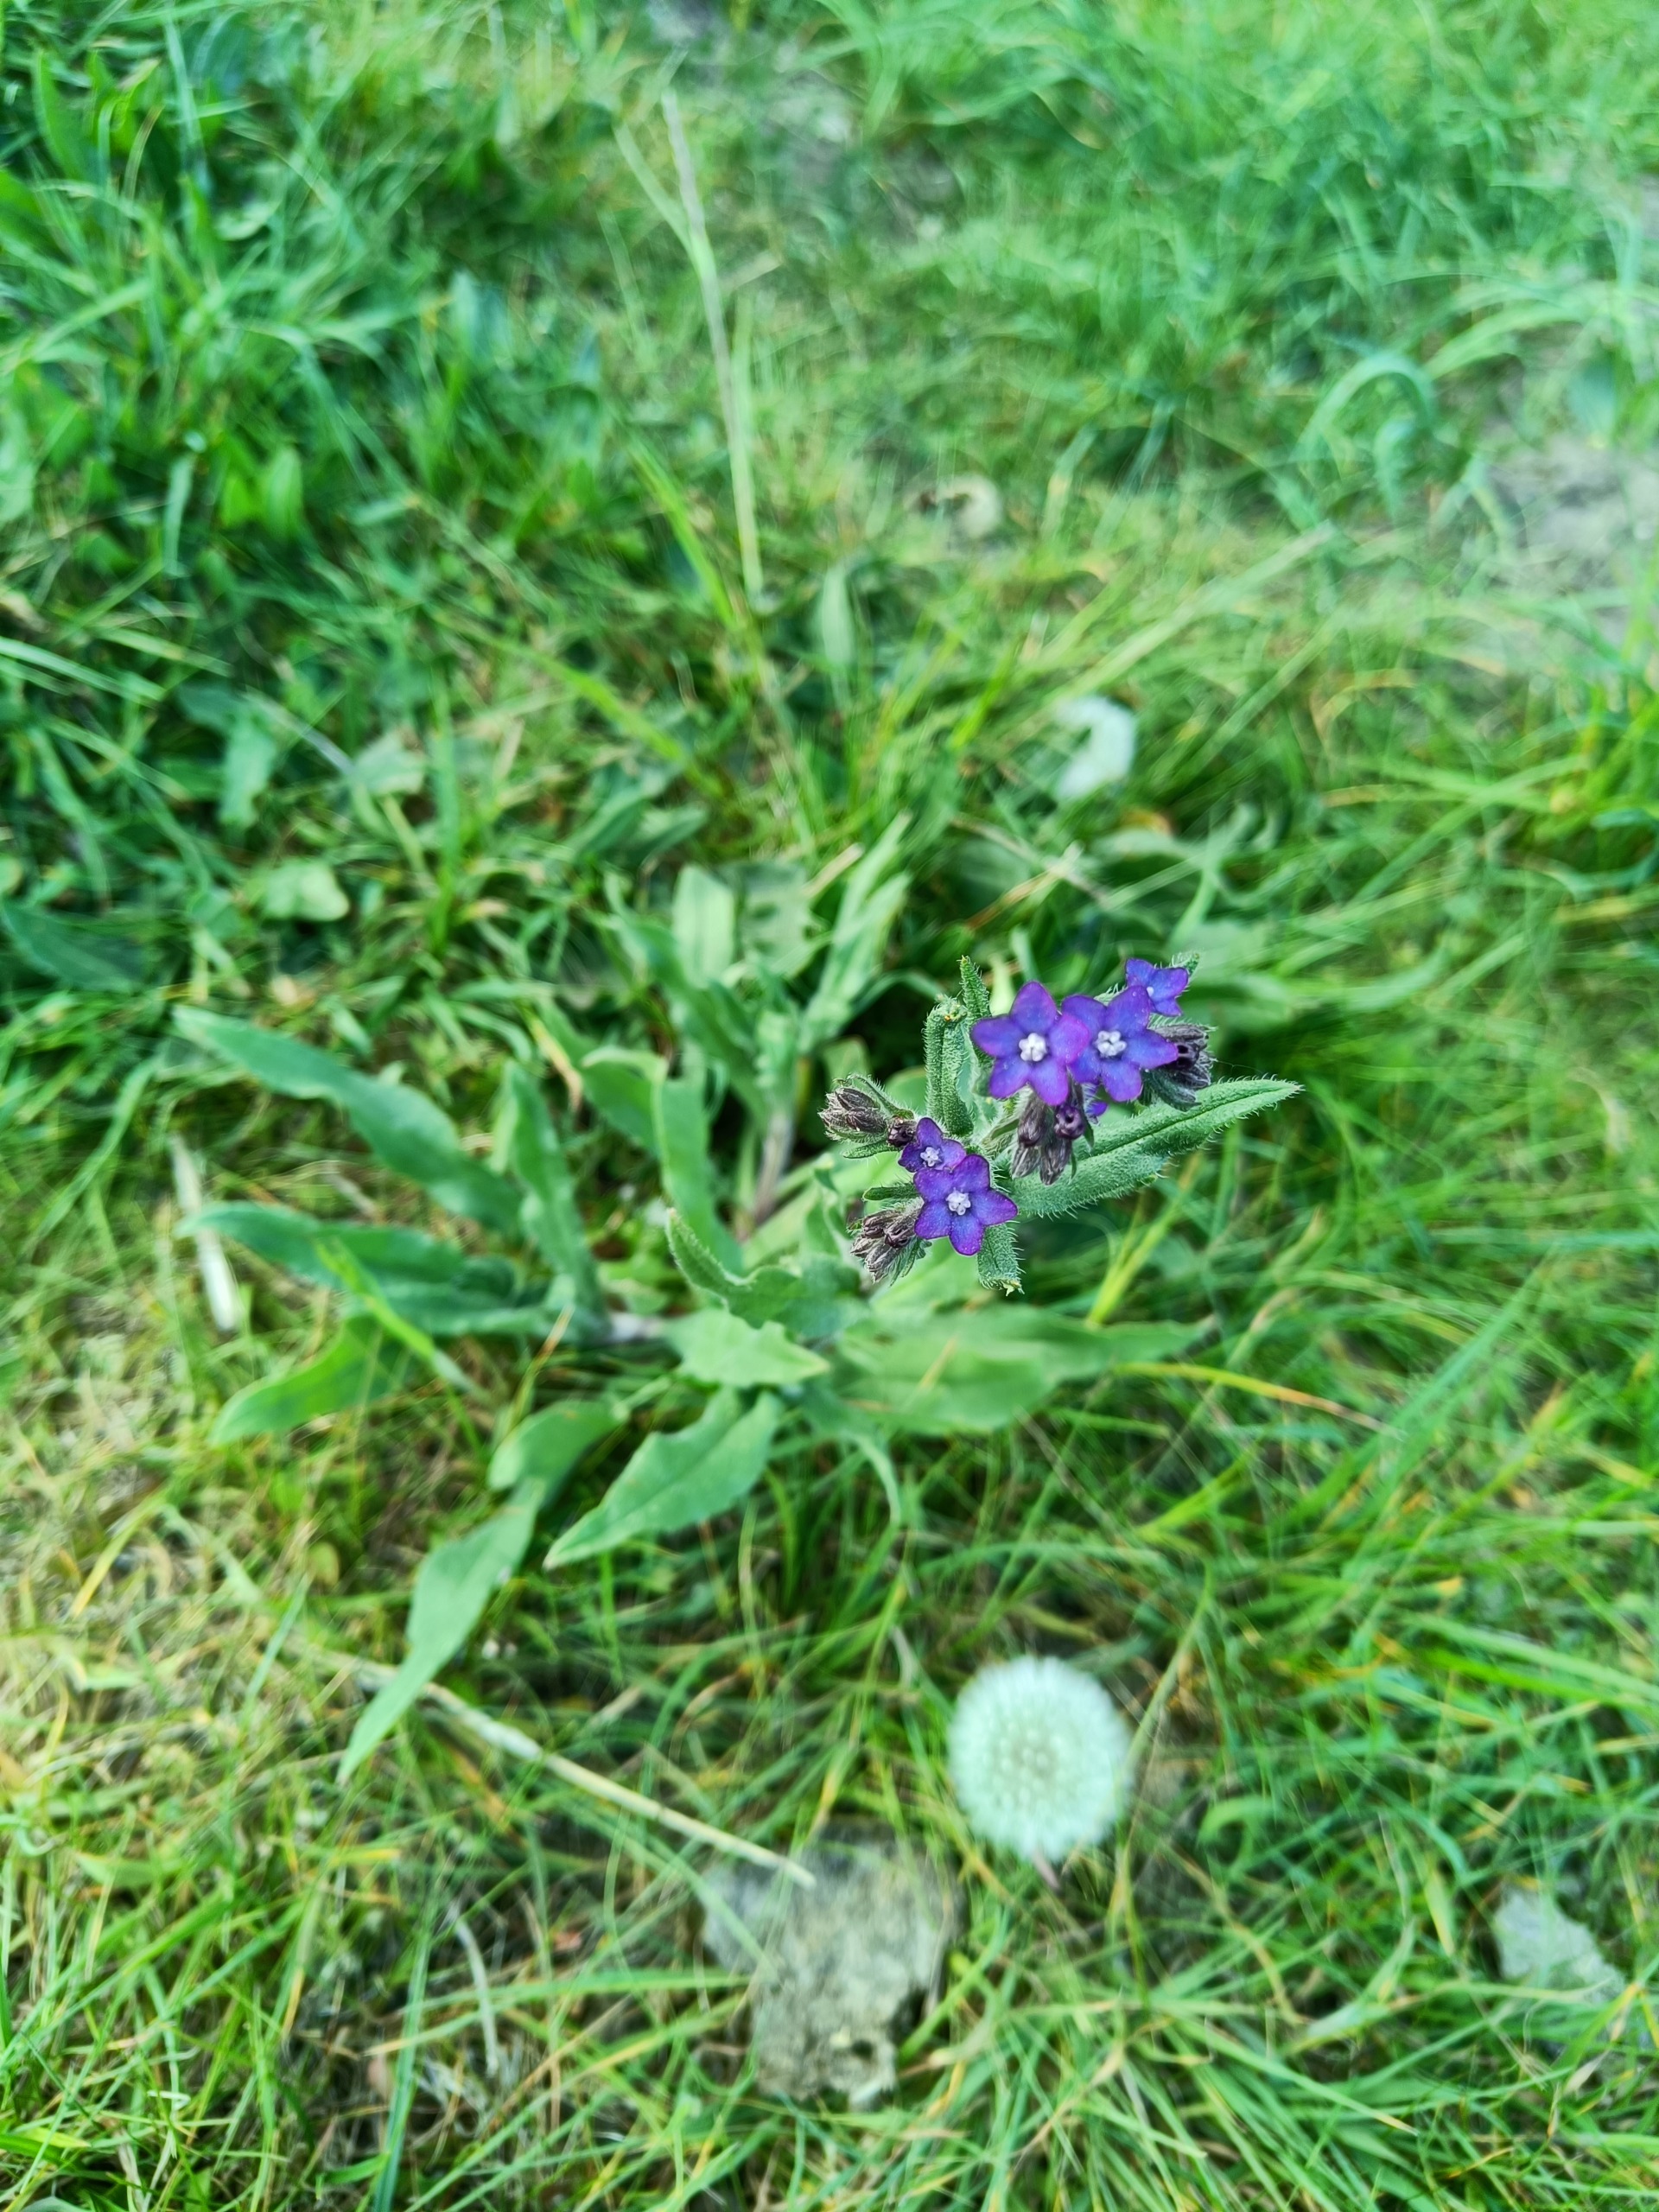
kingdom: Plantae
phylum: Tracheophyta
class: Magnoliopsida
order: Boraginales
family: Boraginaceae
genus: Anchusa
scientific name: Anchusa officinalis
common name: Læge-oksetunge
